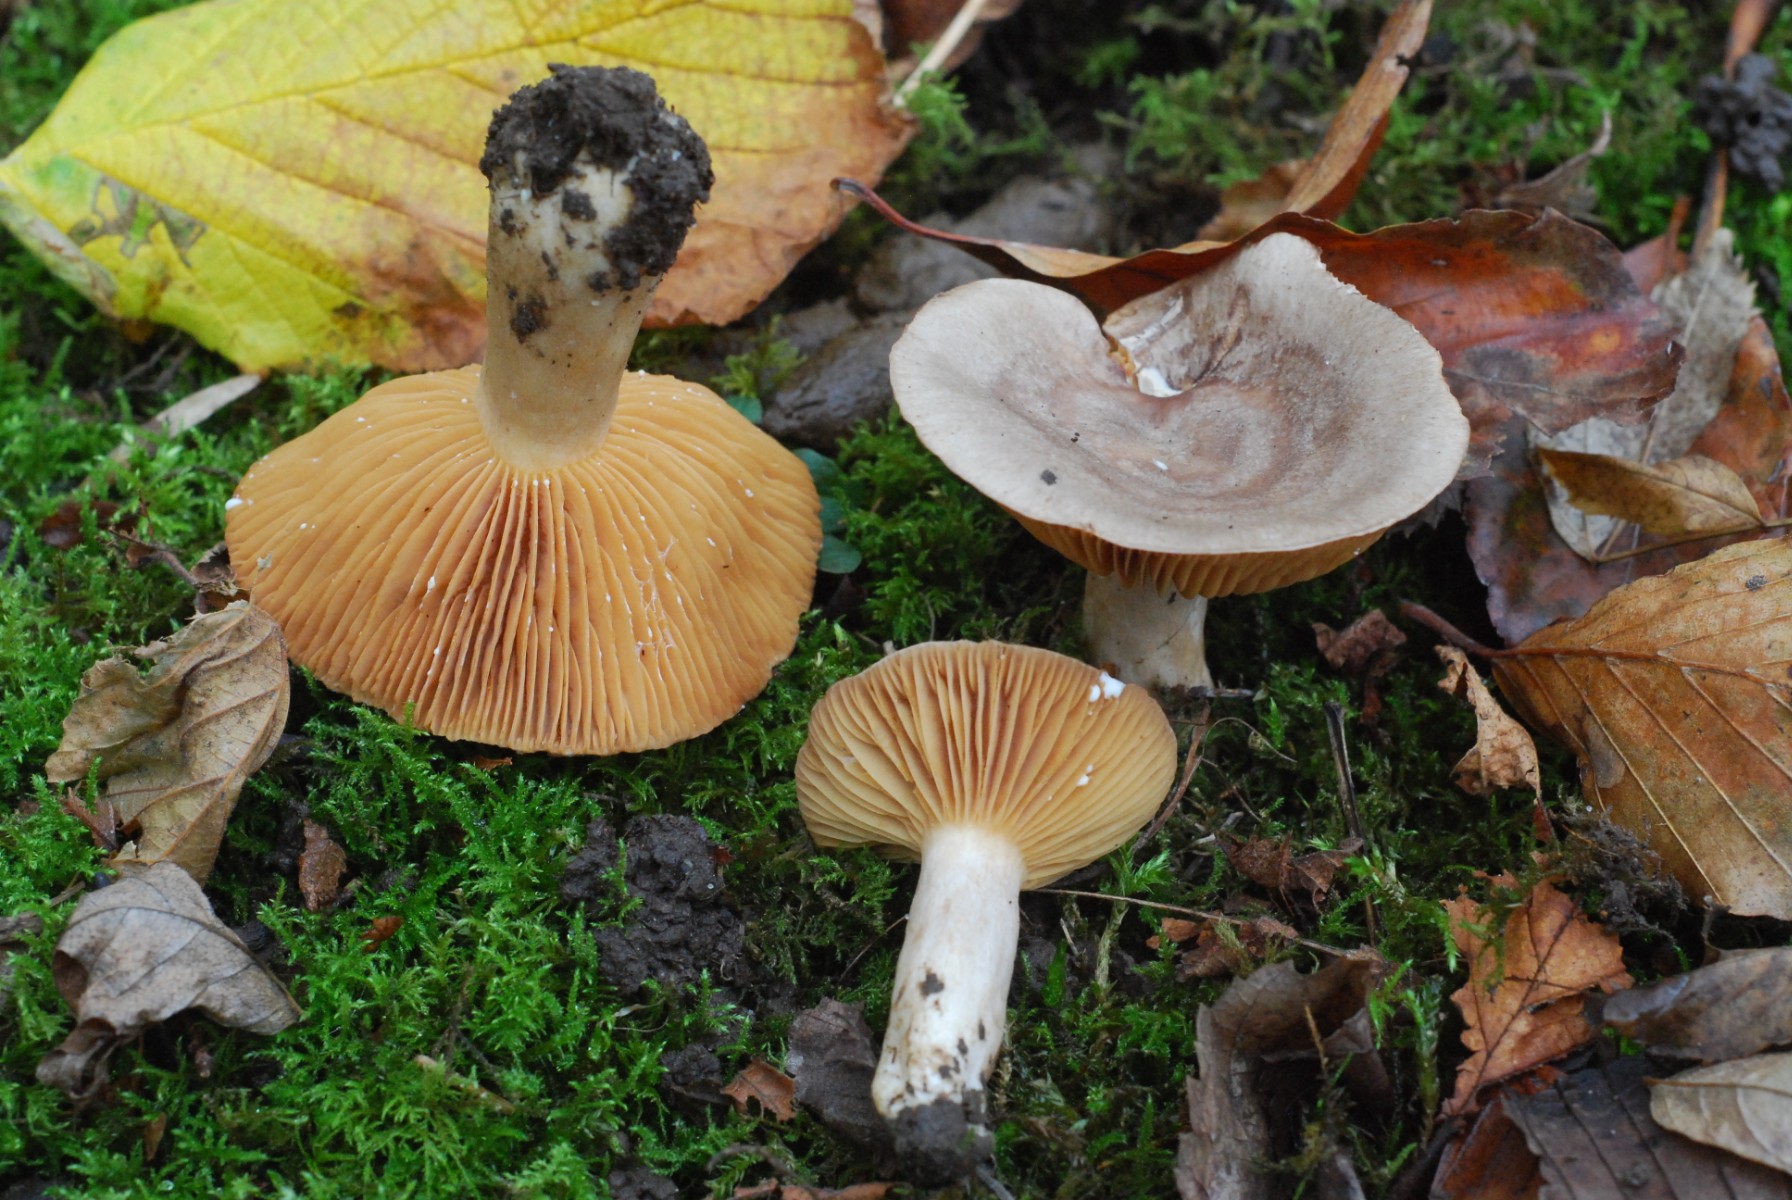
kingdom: Fungi
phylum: Basidiomycota
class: Agaricomycetes
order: Russulales
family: Russulaceae
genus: Lactarius
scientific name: Lactarius pyrogalus
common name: hassel-mælkehat
